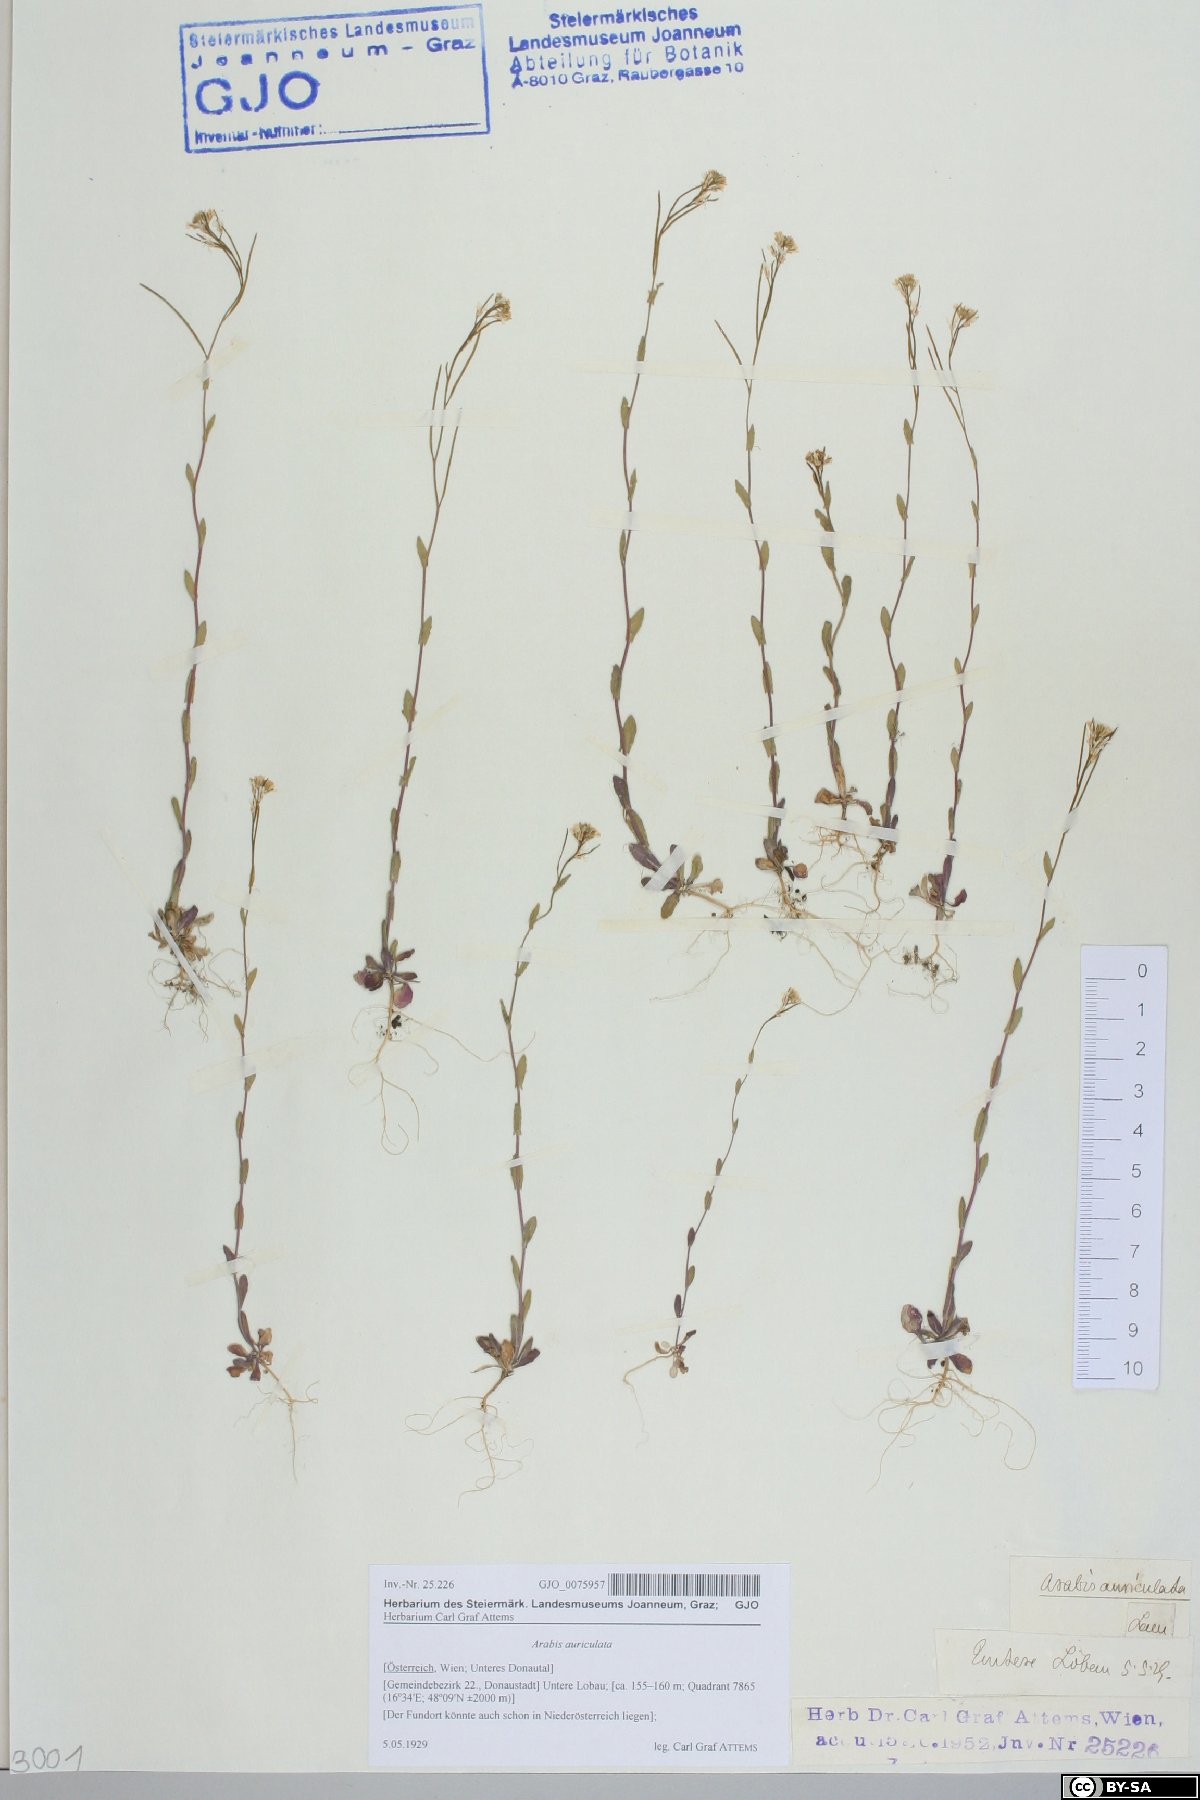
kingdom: Plantae
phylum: Tracheophyta
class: Magnoliopsida
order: Brassicales
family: Brassicaceae
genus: Arabis
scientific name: Arabis auriculata
